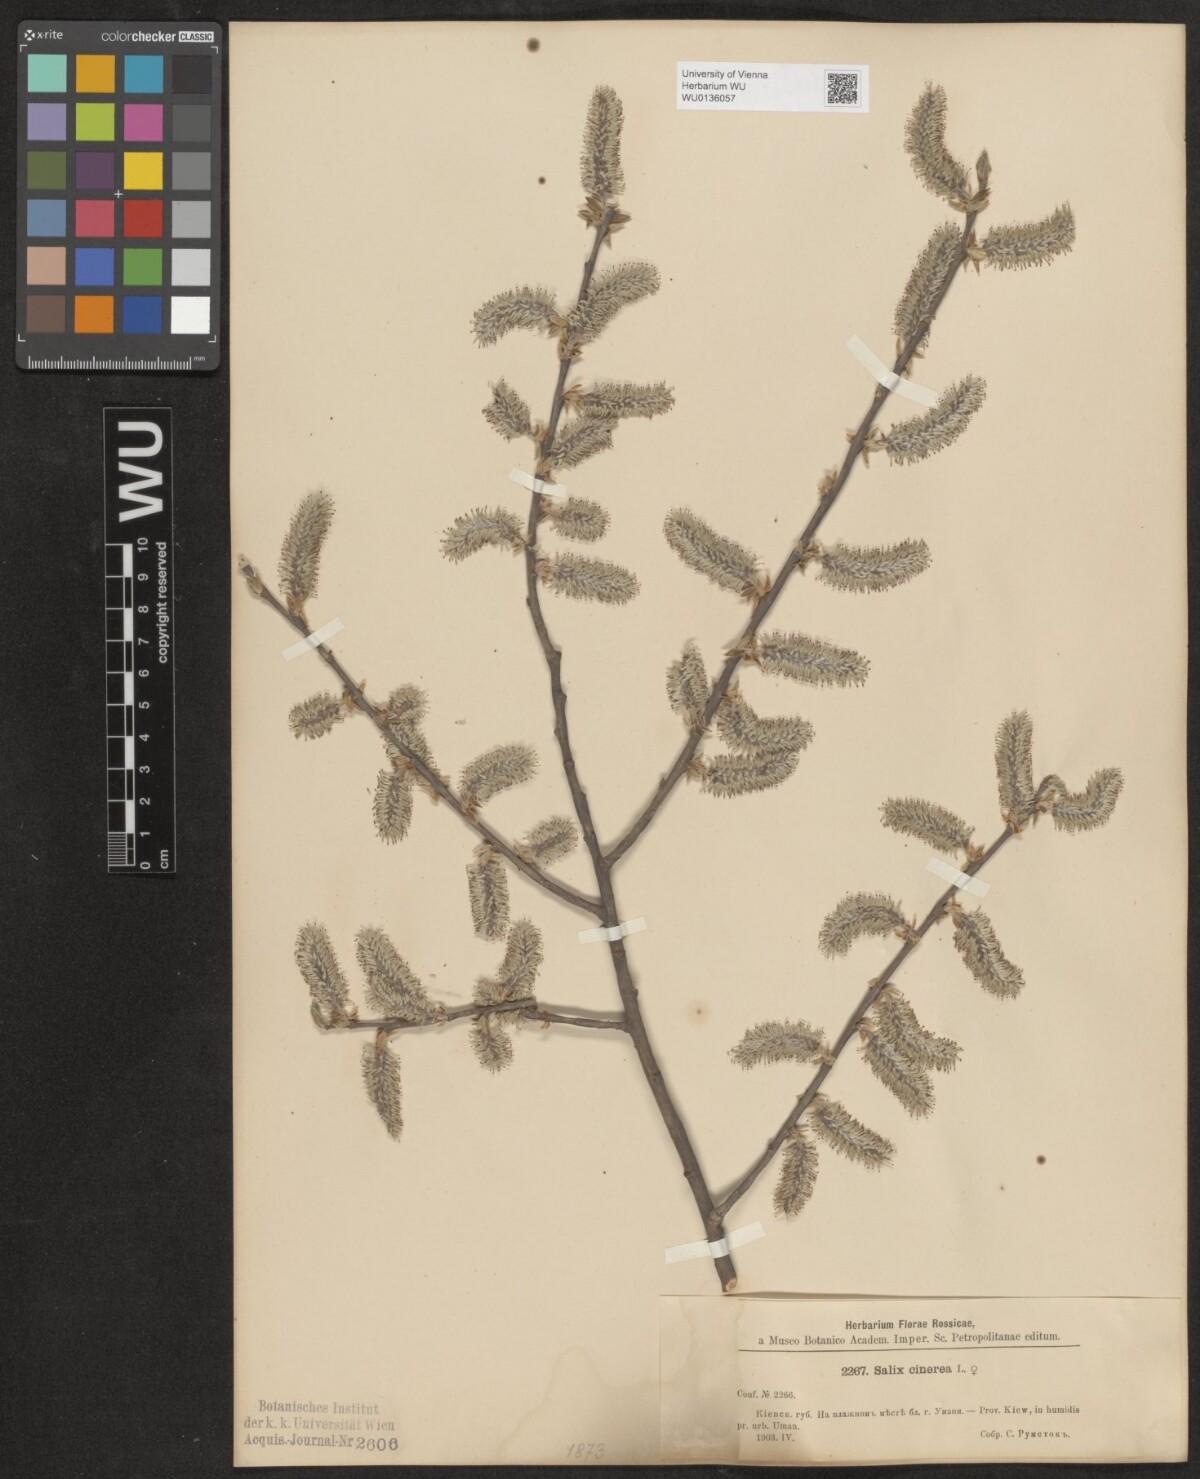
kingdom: Plantae
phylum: Tracheophyta
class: Magnoliopsida
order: Malpighiales
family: Salicaceae
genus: Salix
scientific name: Salix cinerea
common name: Common sallow
